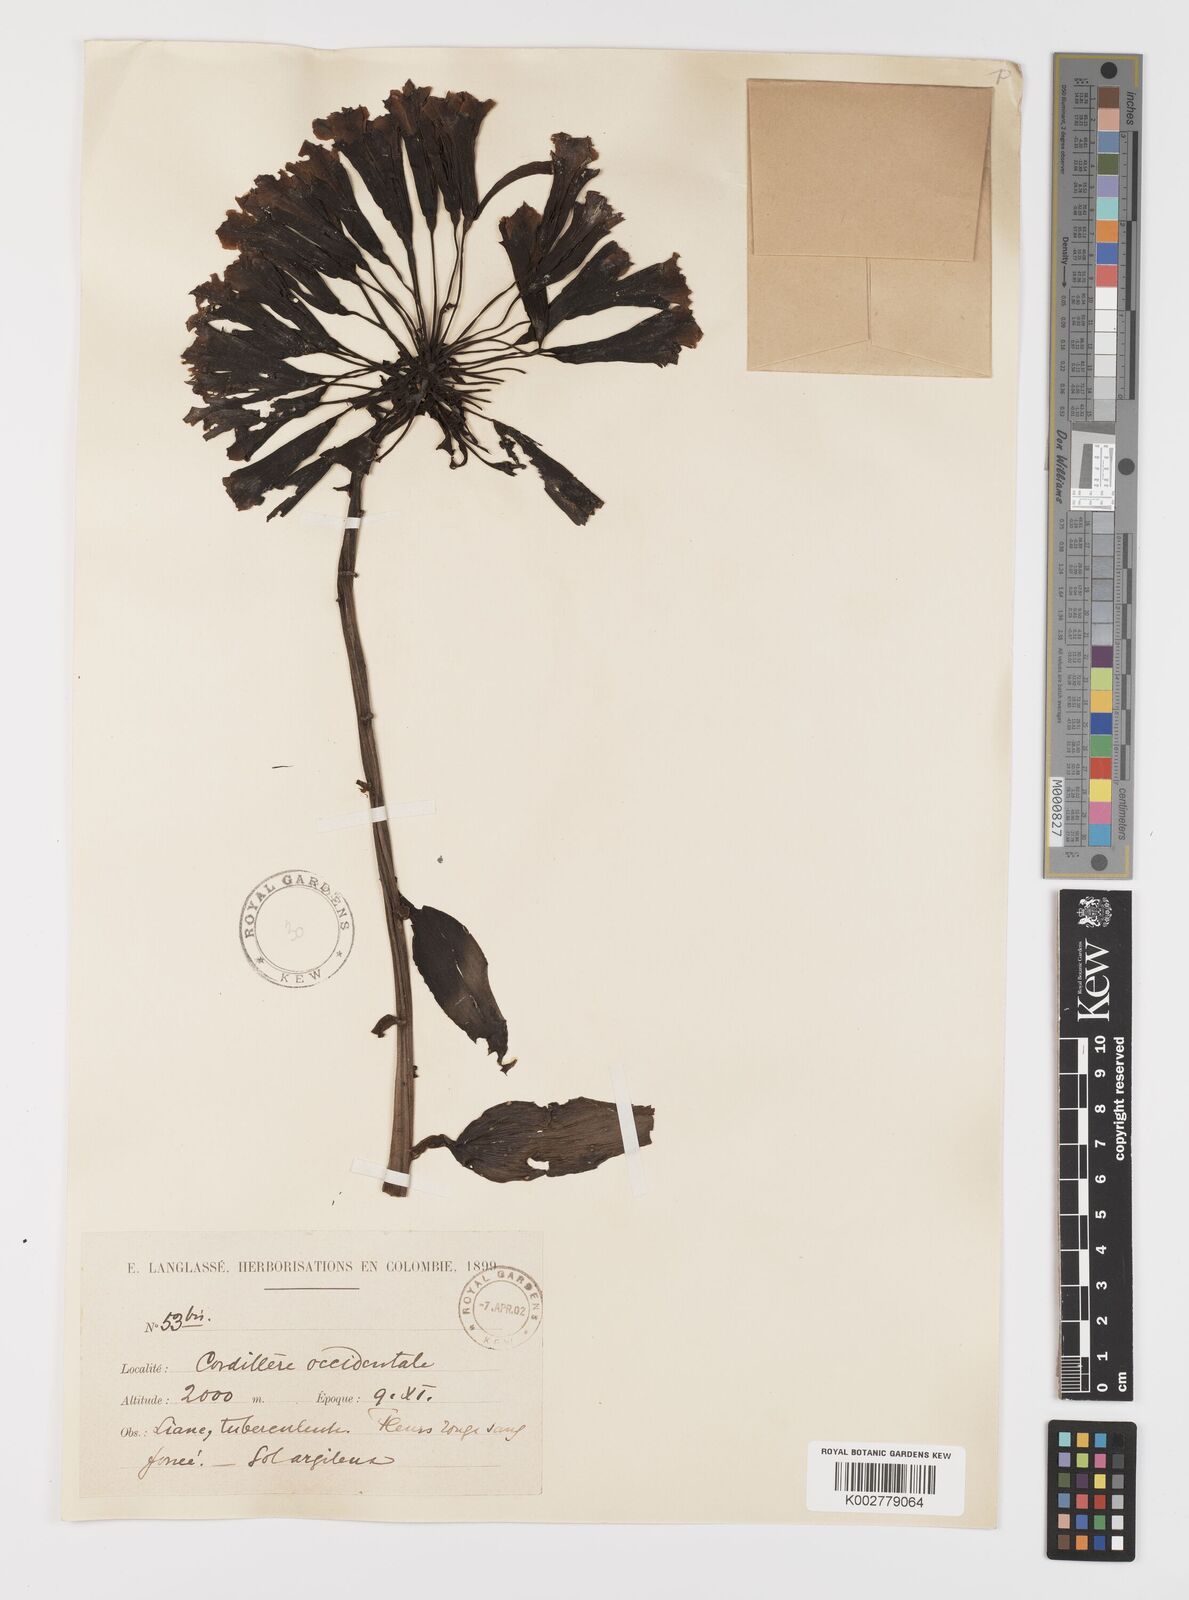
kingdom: Plantae
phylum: Tracheophyta
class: Liliopsida
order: Liliales
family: Alstroemeriaceae
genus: Bomarea
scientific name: Bomarea
